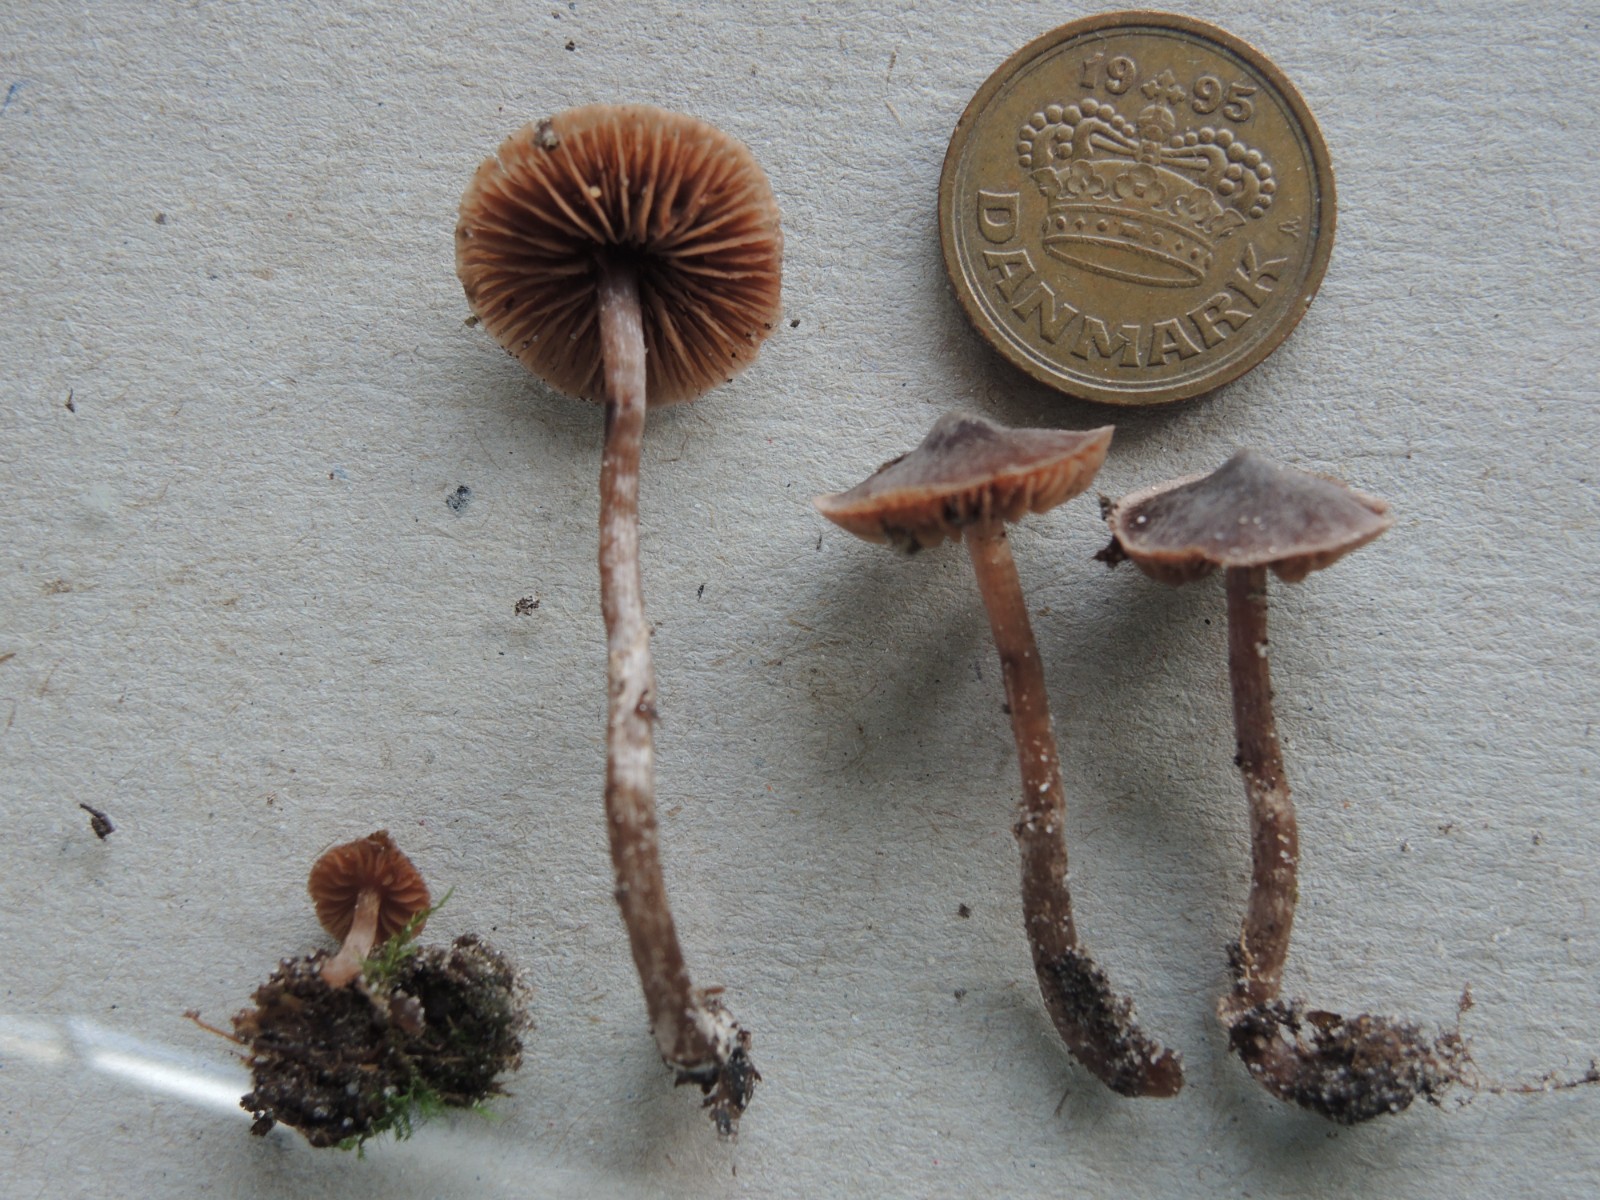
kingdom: Fungi
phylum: Basidiomycota
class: Agaricomycetes
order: Agaricales
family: Cortinariaceae
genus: Cortinarius
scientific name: Cortinarius fulvopaludosus
